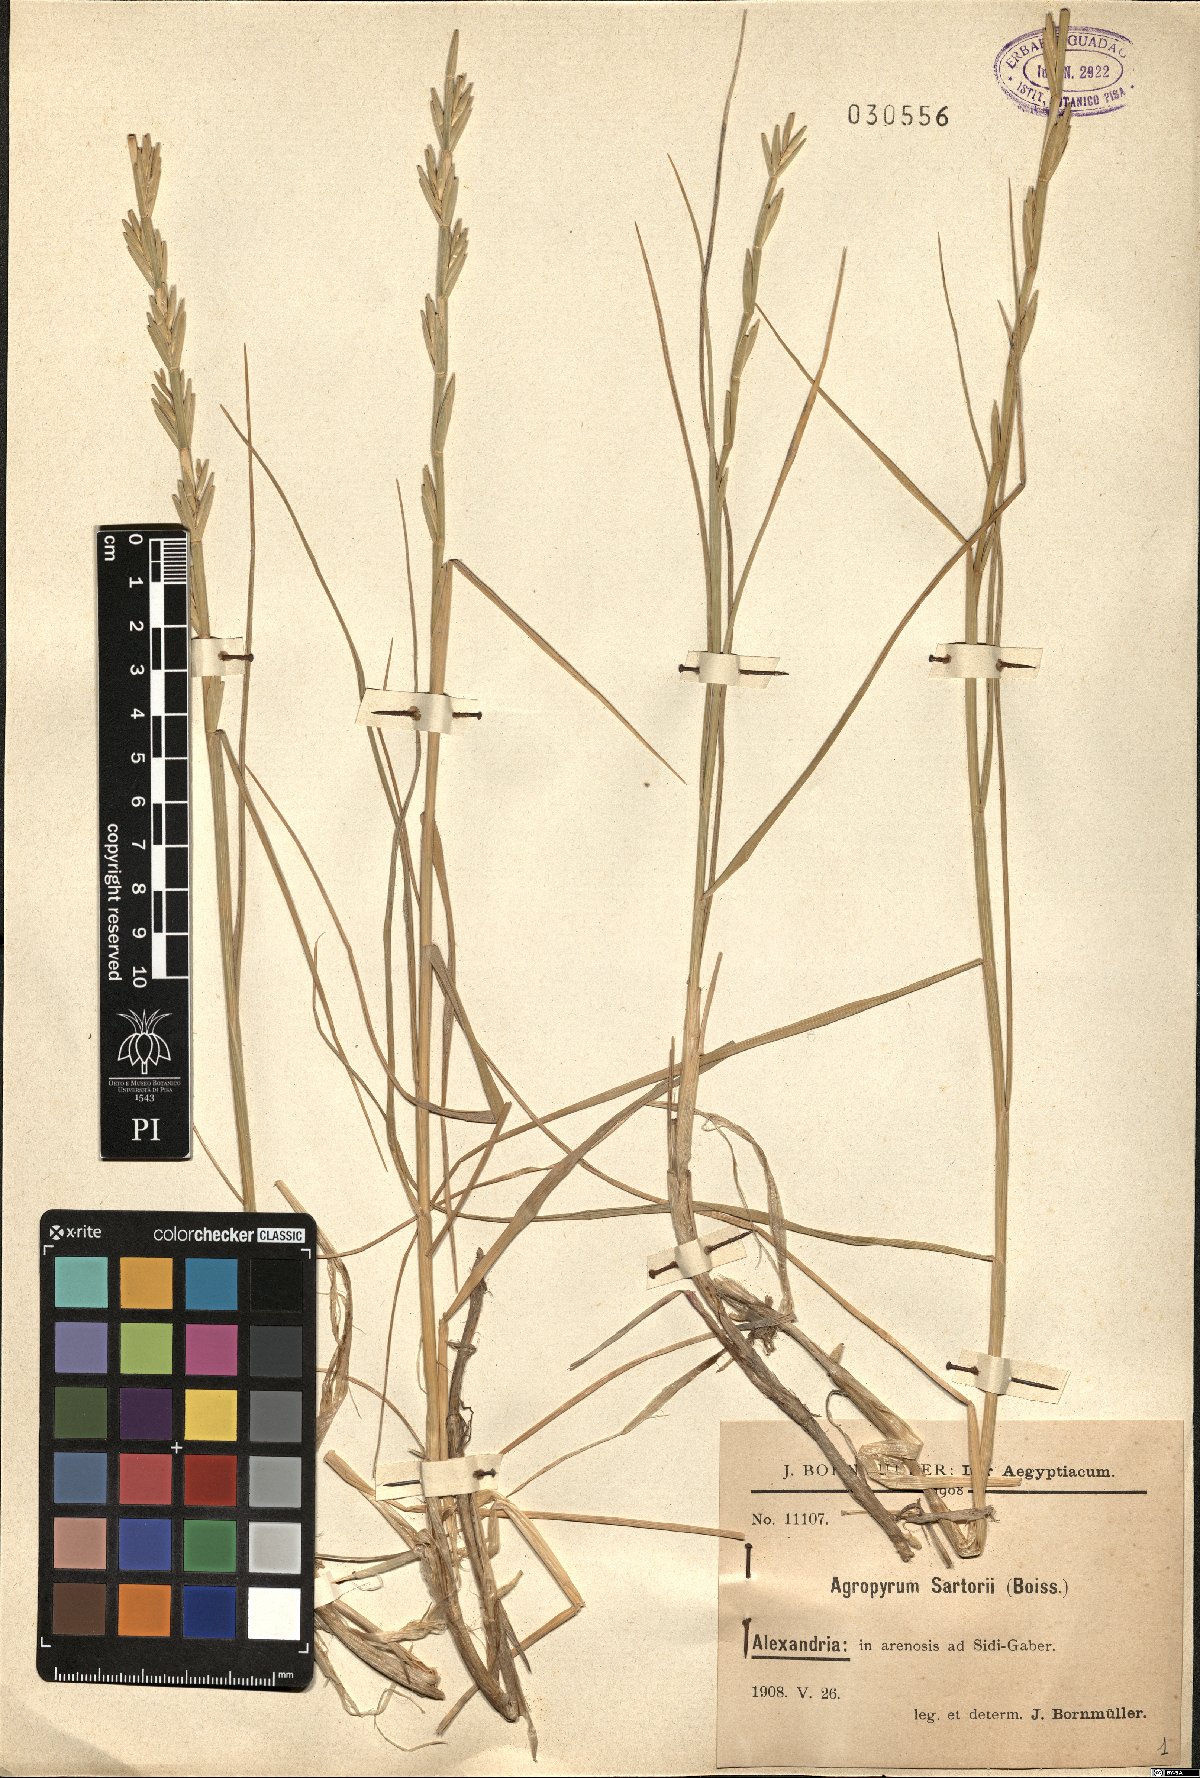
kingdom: Plantae
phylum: Tracheophyta
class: Liliopsida
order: Poales
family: Poaceae
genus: Thinopyrum
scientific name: Thinopyrum junceum
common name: Russian wheatgrass
